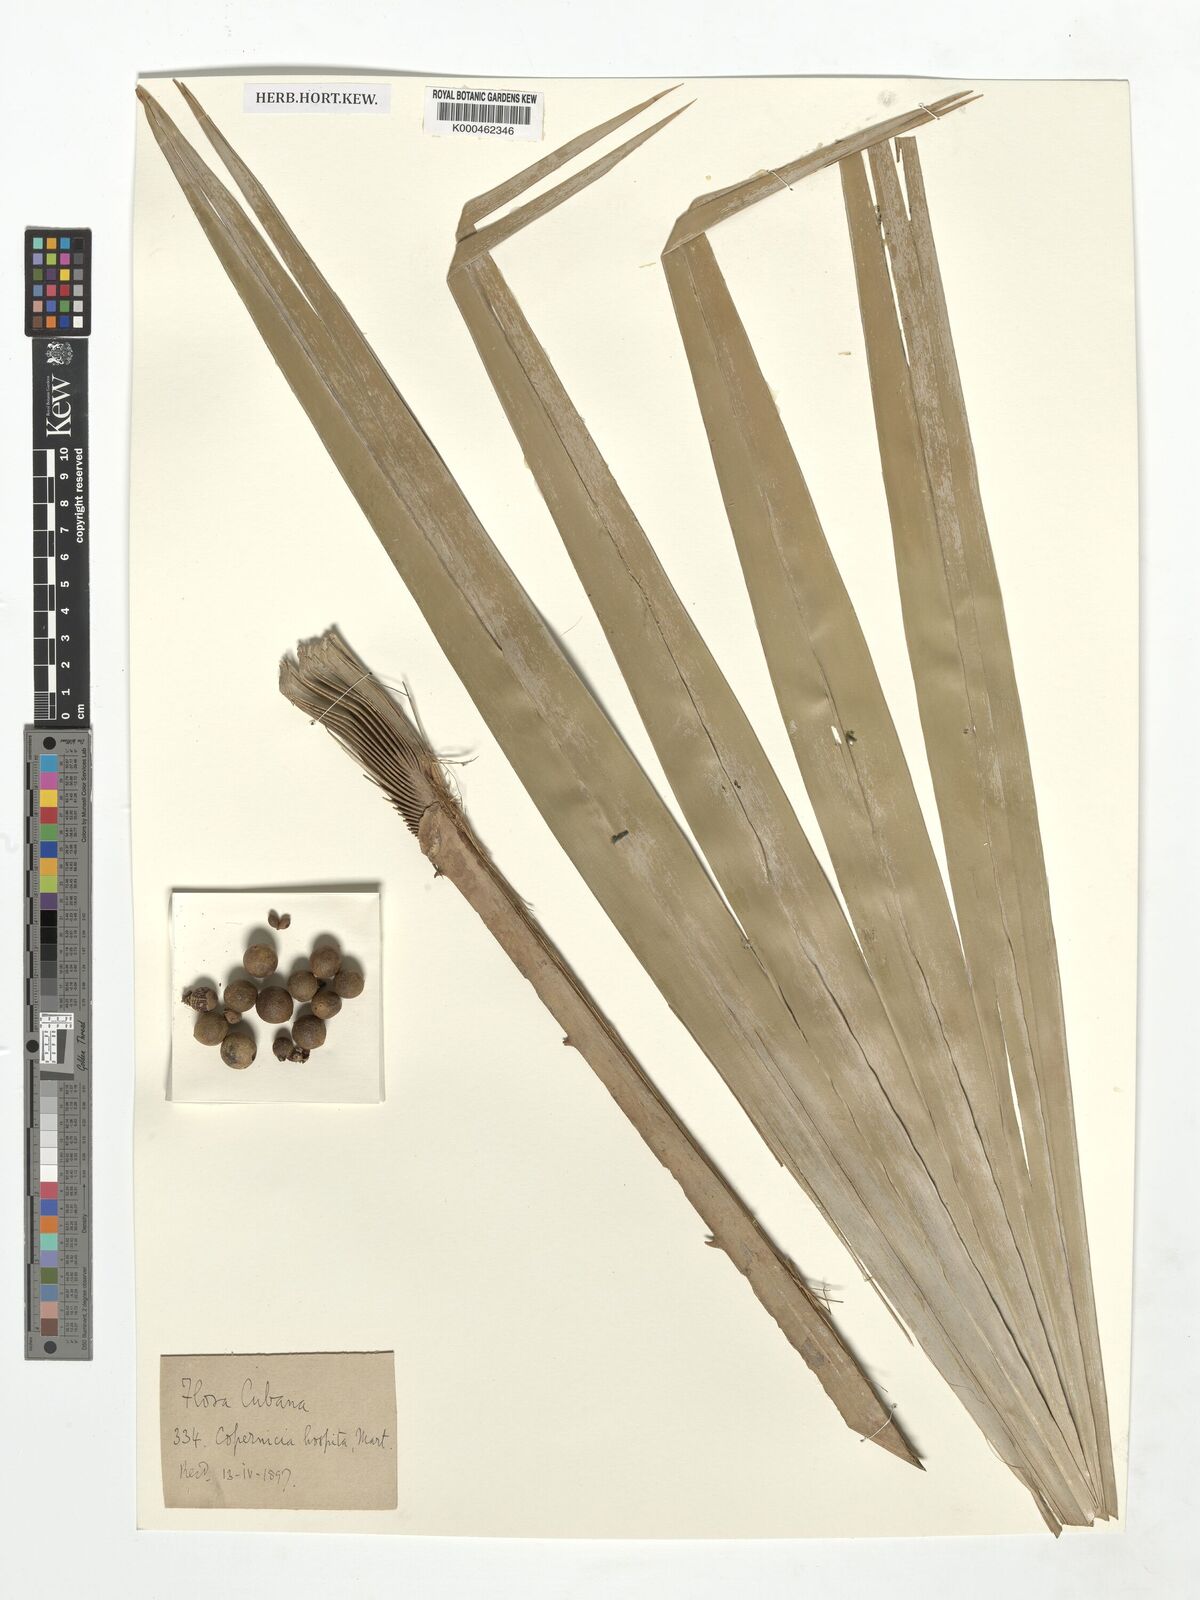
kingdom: Plantae
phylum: Tracheophyta
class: Liliopsida
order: Arecales
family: Arecaceae
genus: Copernicia
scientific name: Copernicia hospita
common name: Cubam palm
